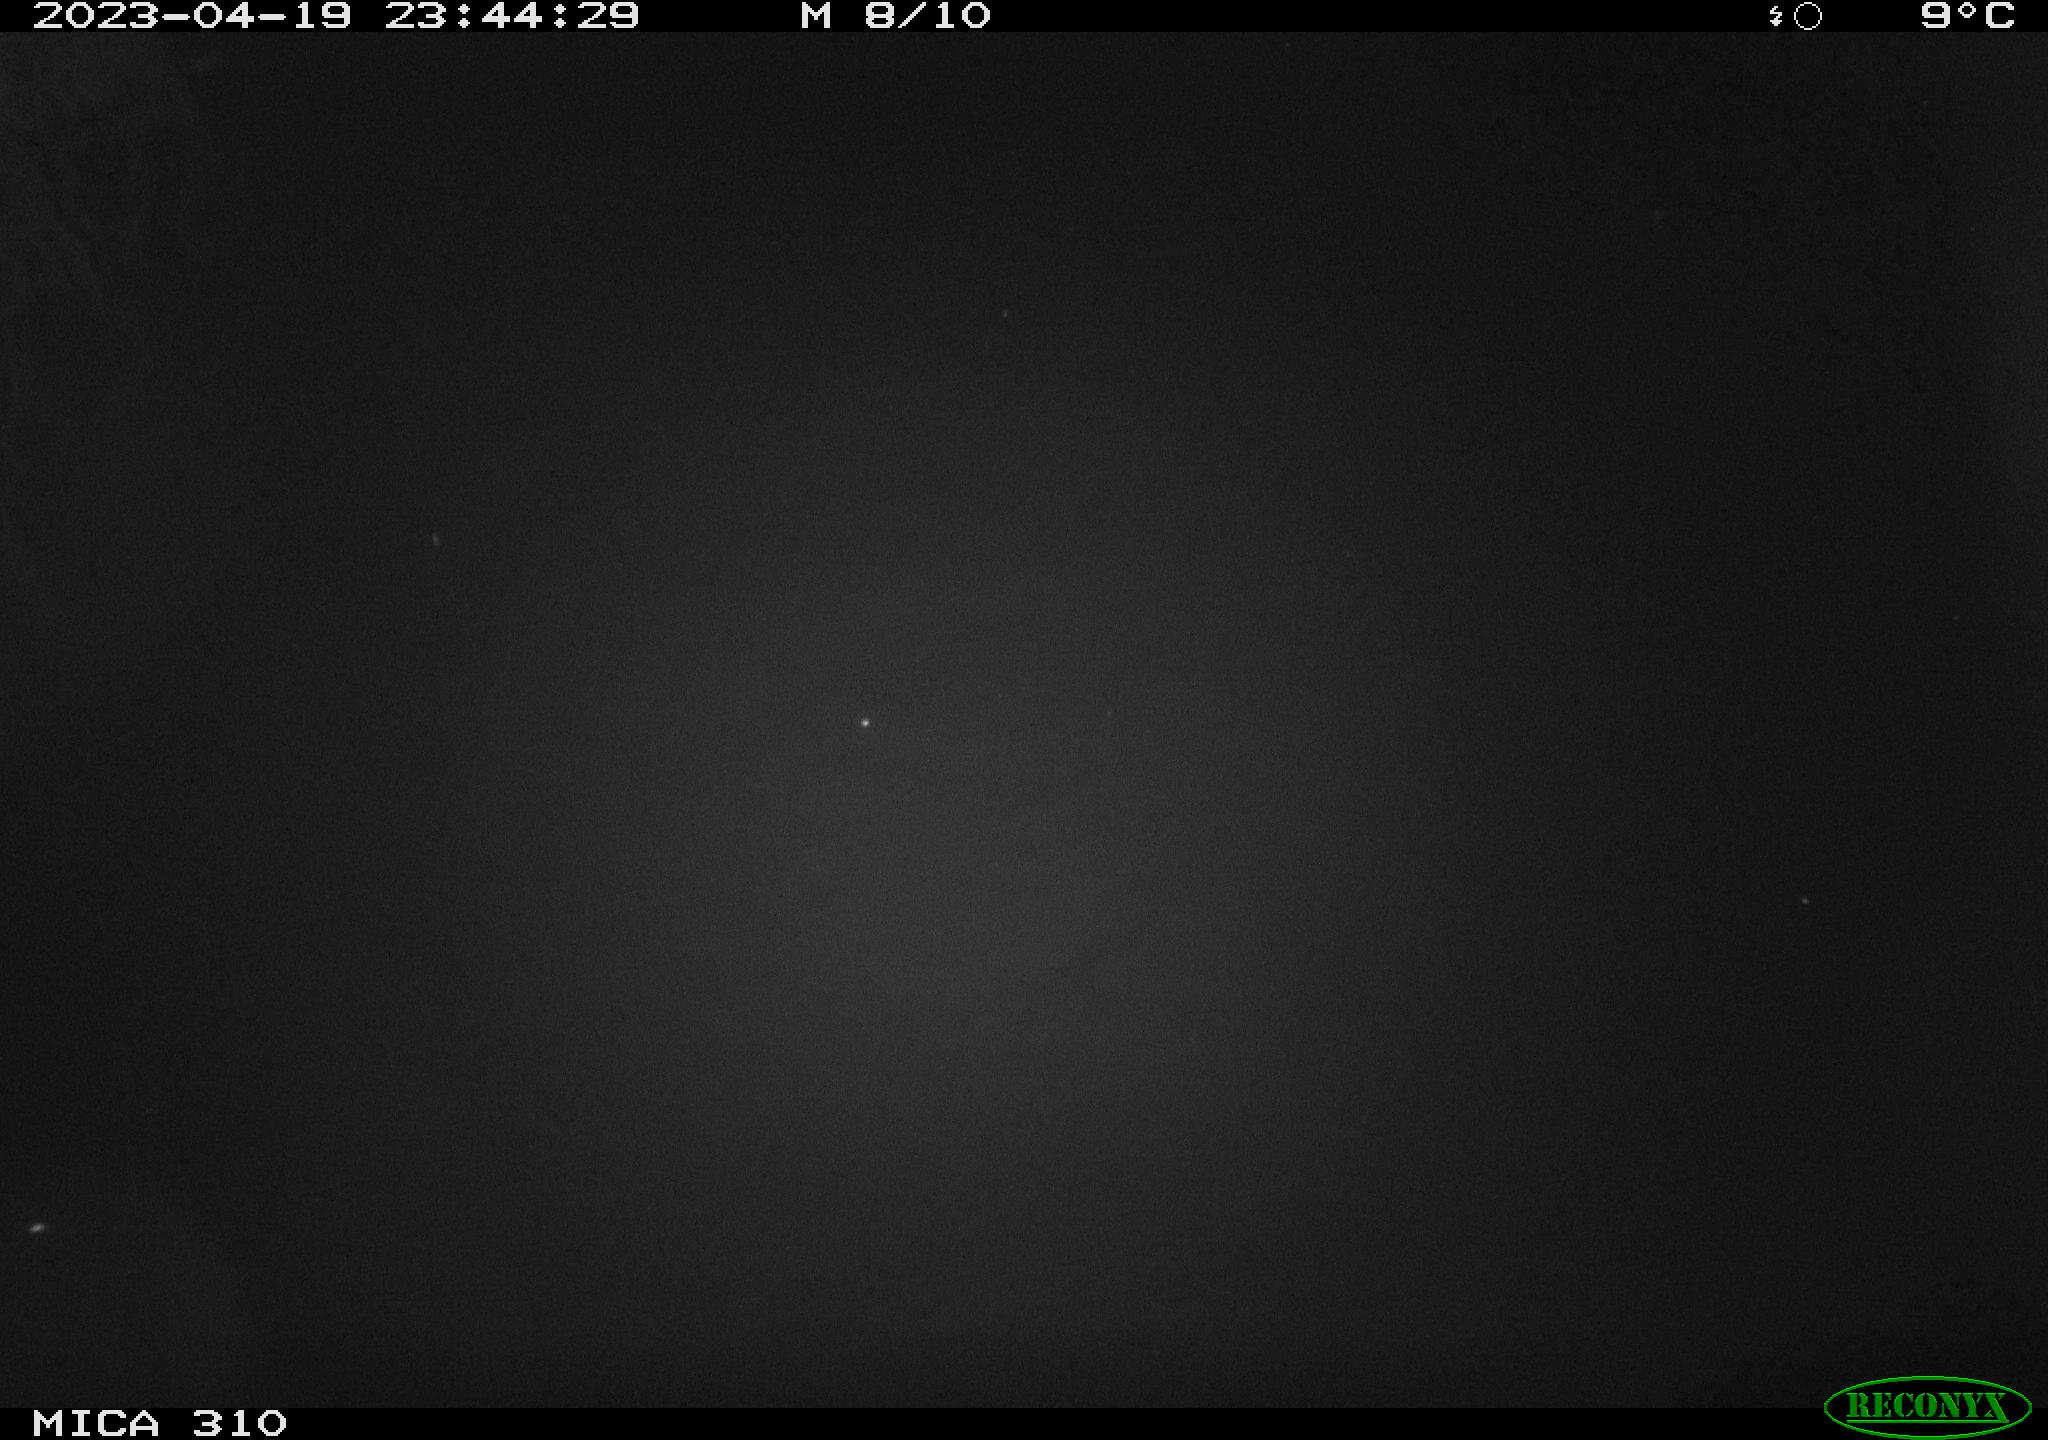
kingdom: Animalia
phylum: Chordata
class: Aves
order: Anseriformes
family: Anatidae
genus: Anas
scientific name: Anas
